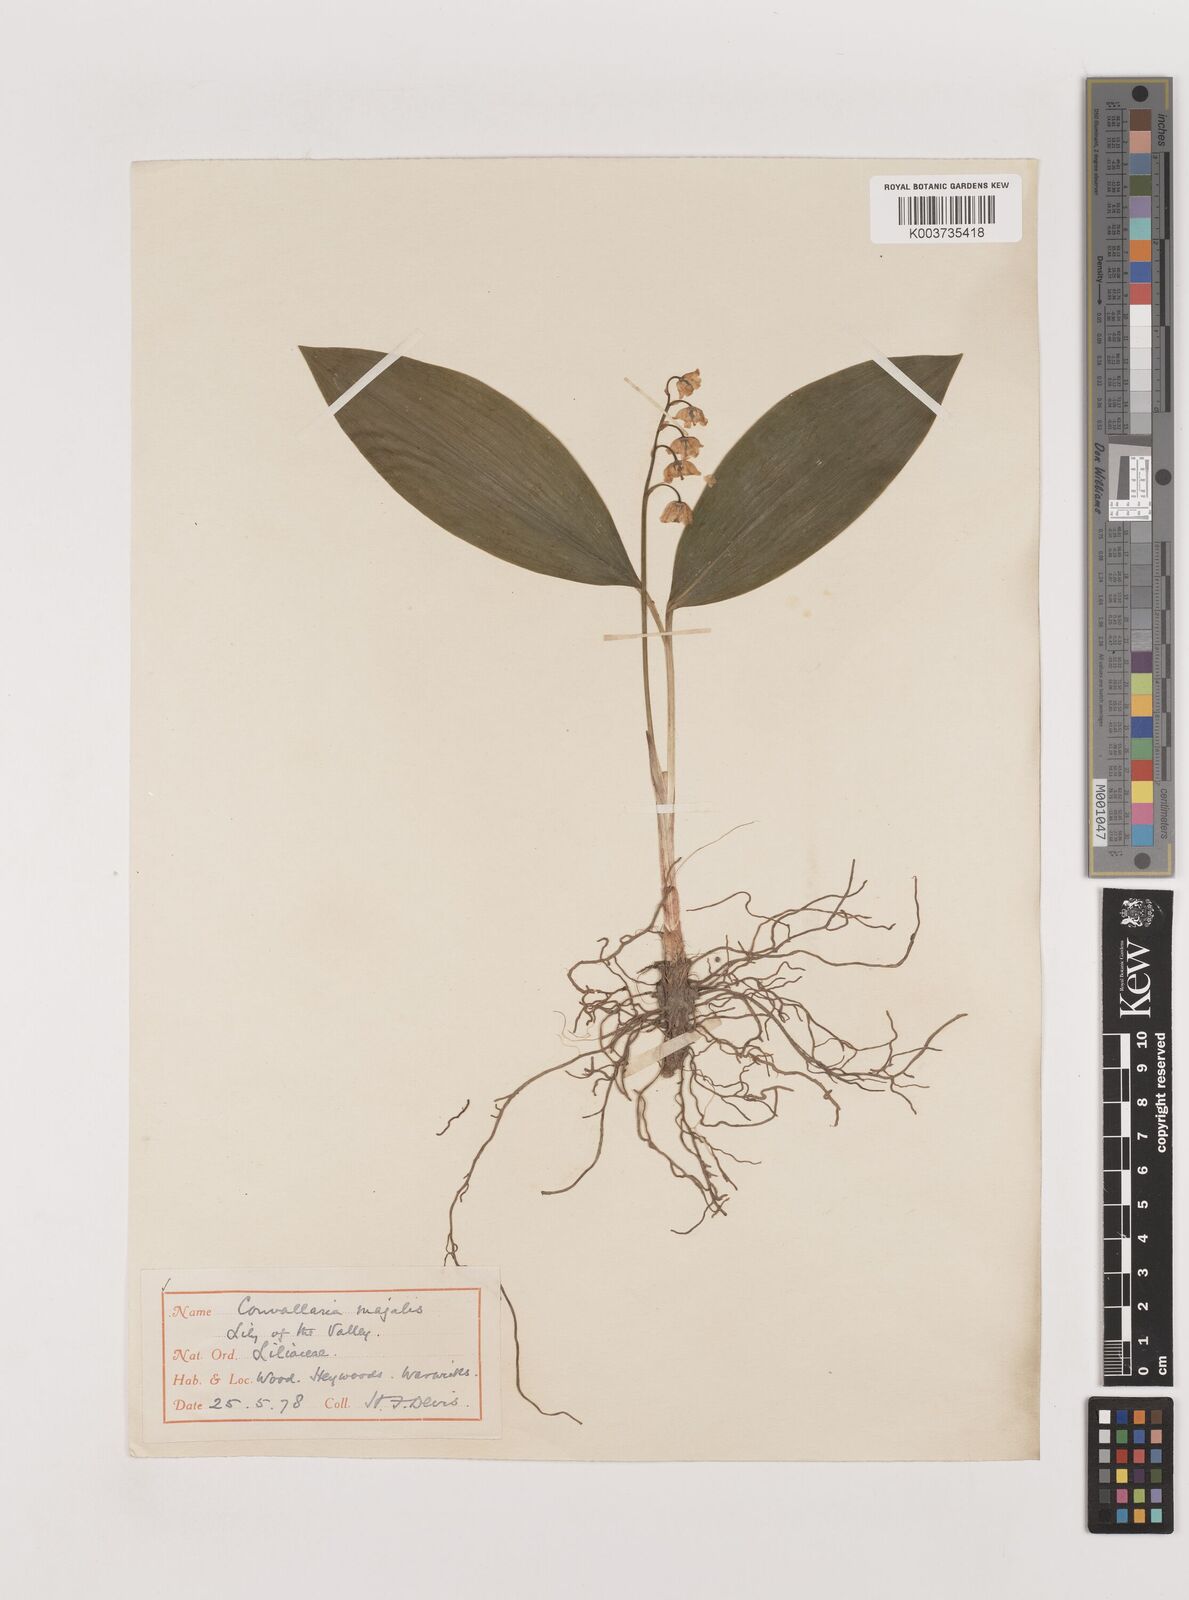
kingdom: Plantae
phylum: Tracheophyta
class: Liliopsida
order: Asparagales
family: Asparagaceae
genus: Convallaria
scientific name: Convallaria majalis
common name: Lily-of-the-valley
